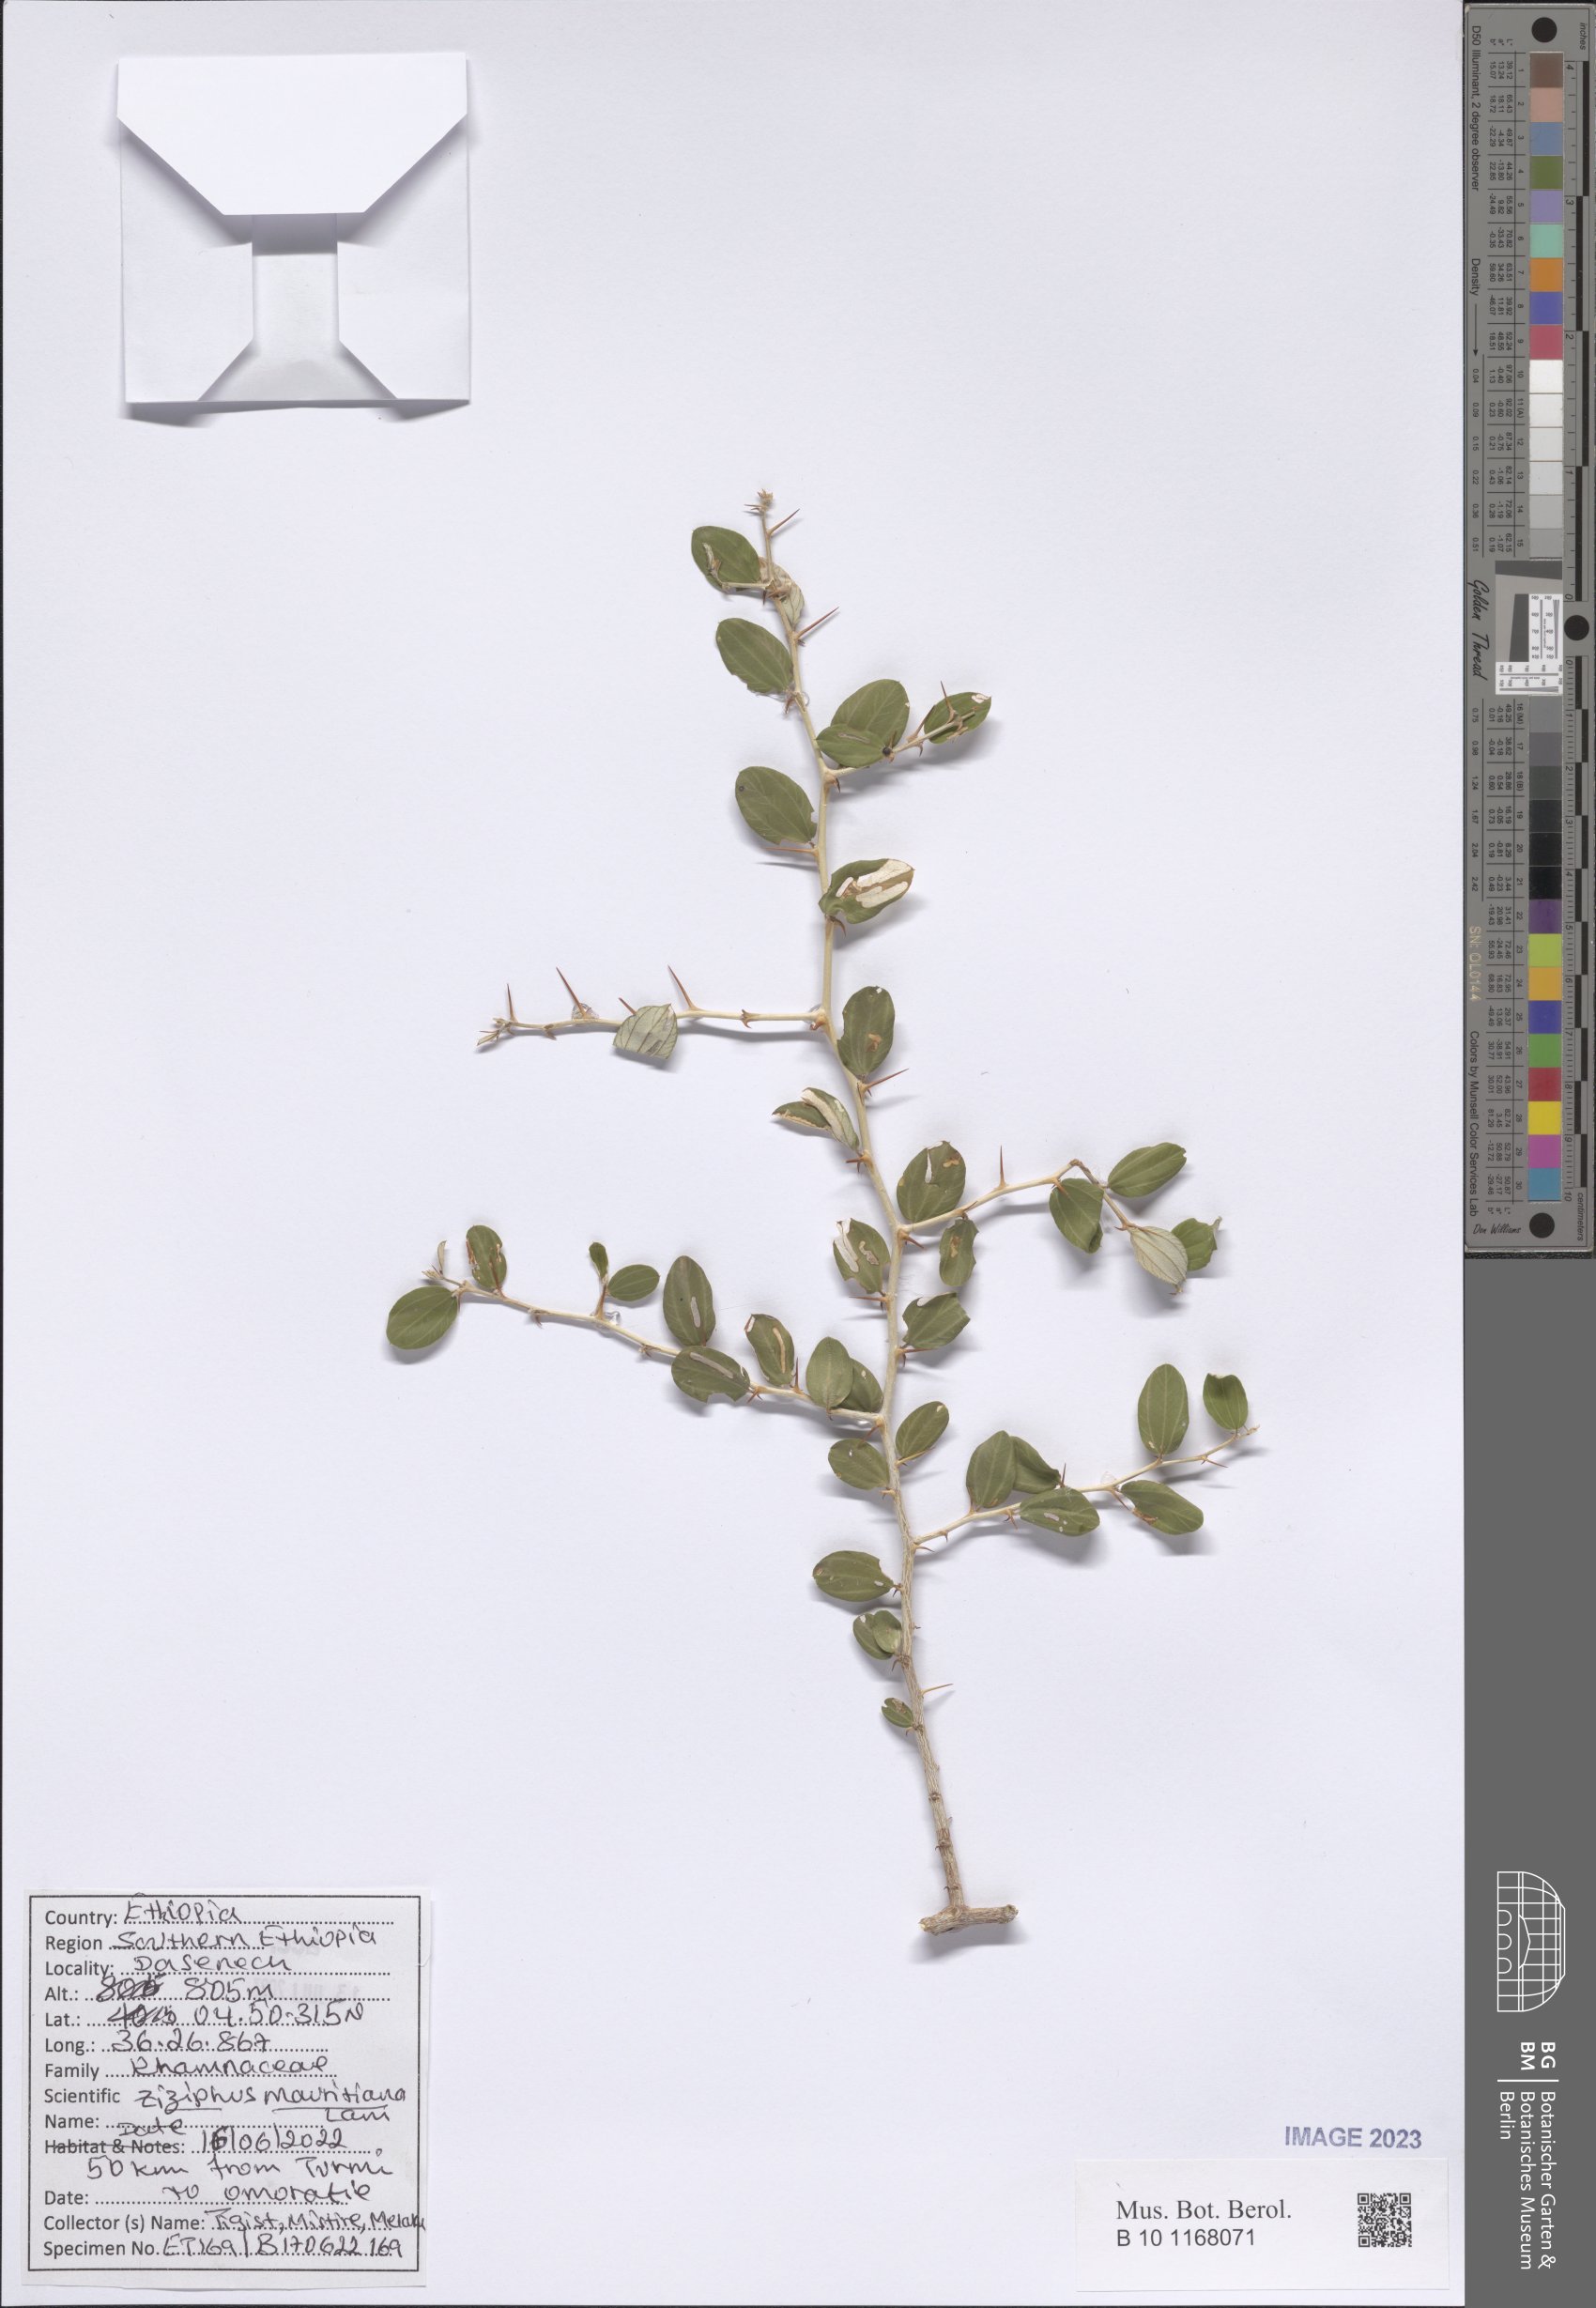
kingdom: Plantae
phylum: Tracheophyta
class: Magnoliopsida
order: Rosales
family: Rhamnaceae
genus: Ziziphus
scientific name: Ziziphus mauritiana
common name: Indian jujube
